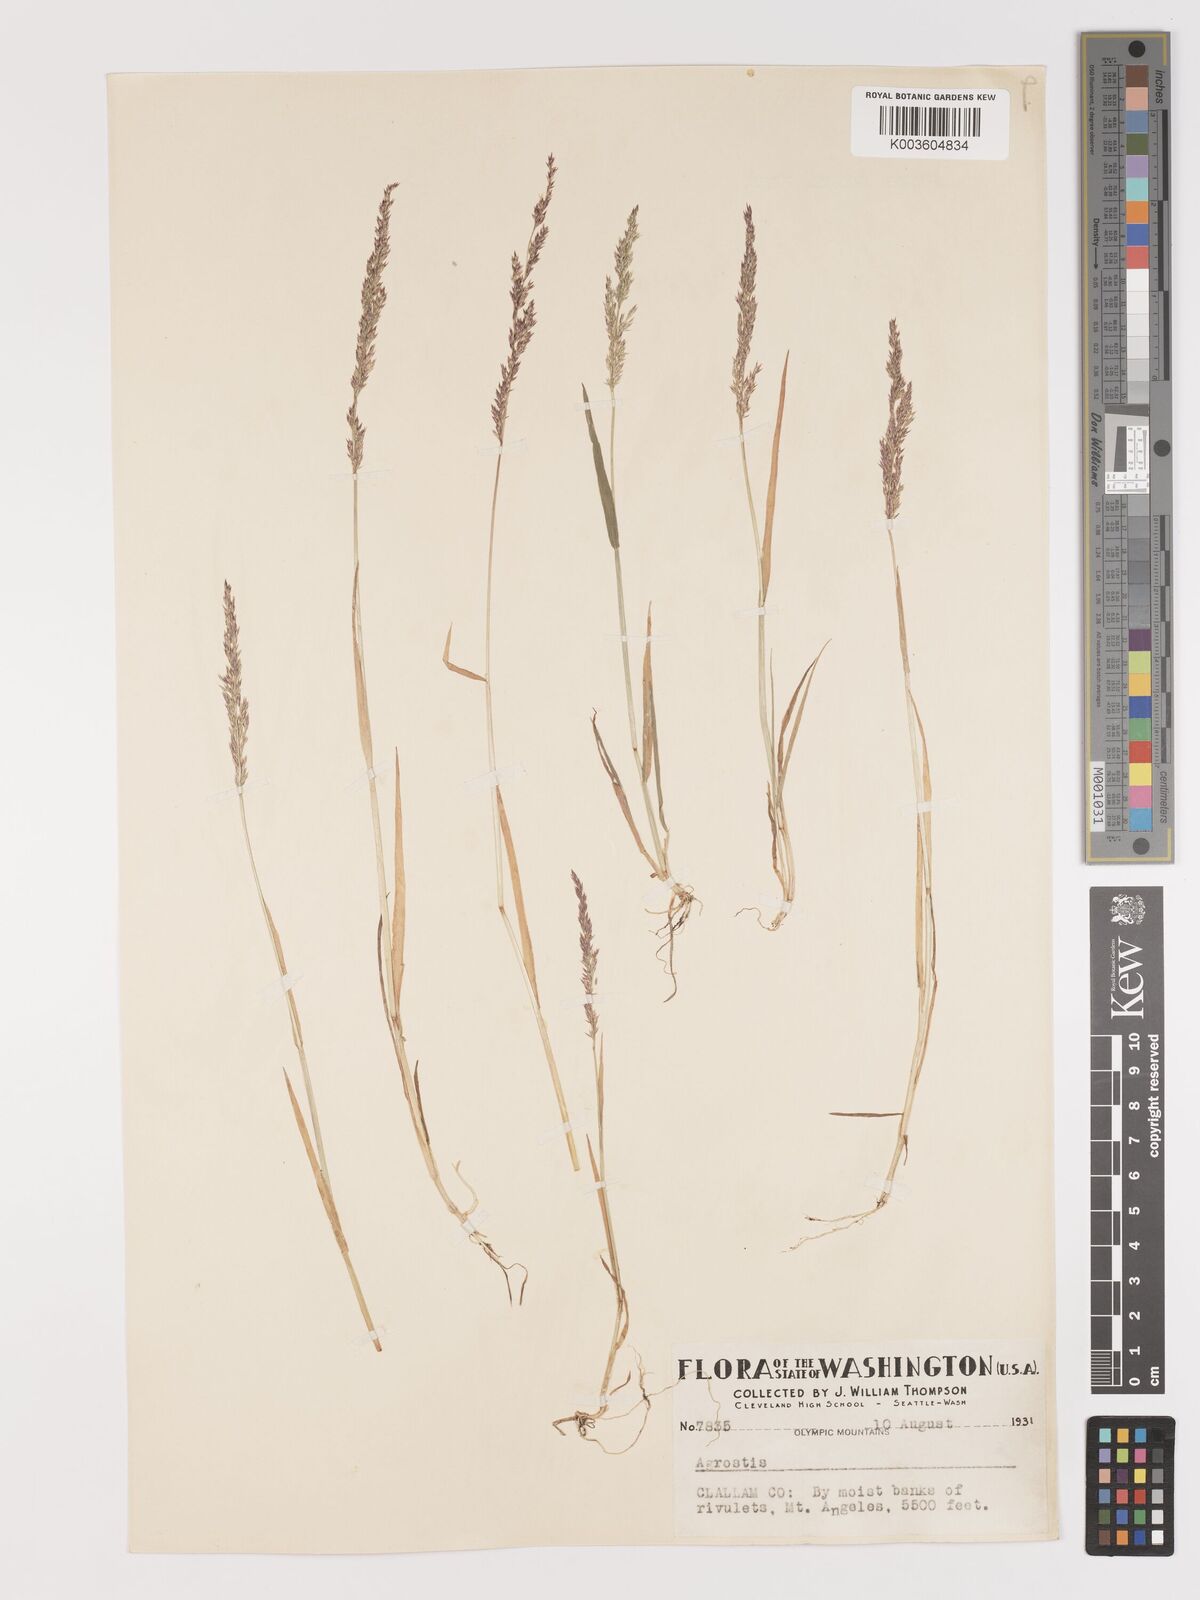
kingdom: Plantae
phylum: Tracheophyta
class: Liliopsida
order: Poales
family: Poaceae
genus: Agrostis
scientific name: Agrostis
